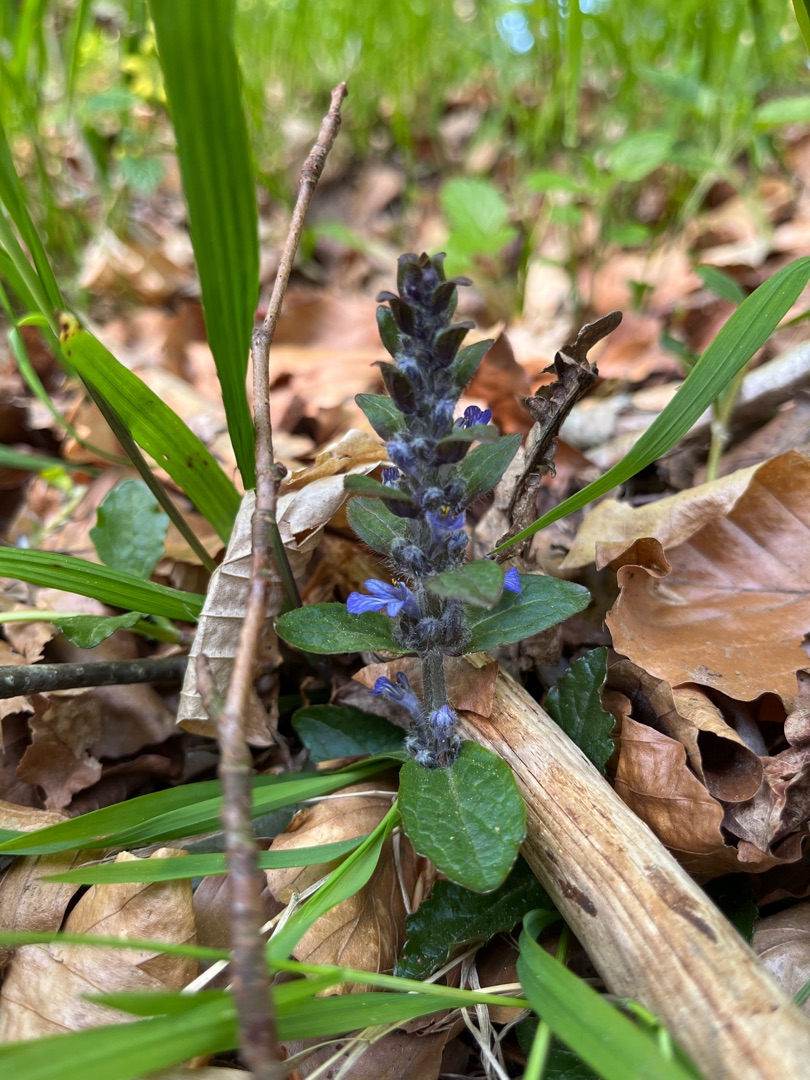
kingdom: Plantae
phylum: Tracheophyta
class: Magnoliopsida
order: Lamiales
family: Lamiaceae
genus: Ajuga
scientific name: Ajuga reptans
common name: Krybende læbeløs
